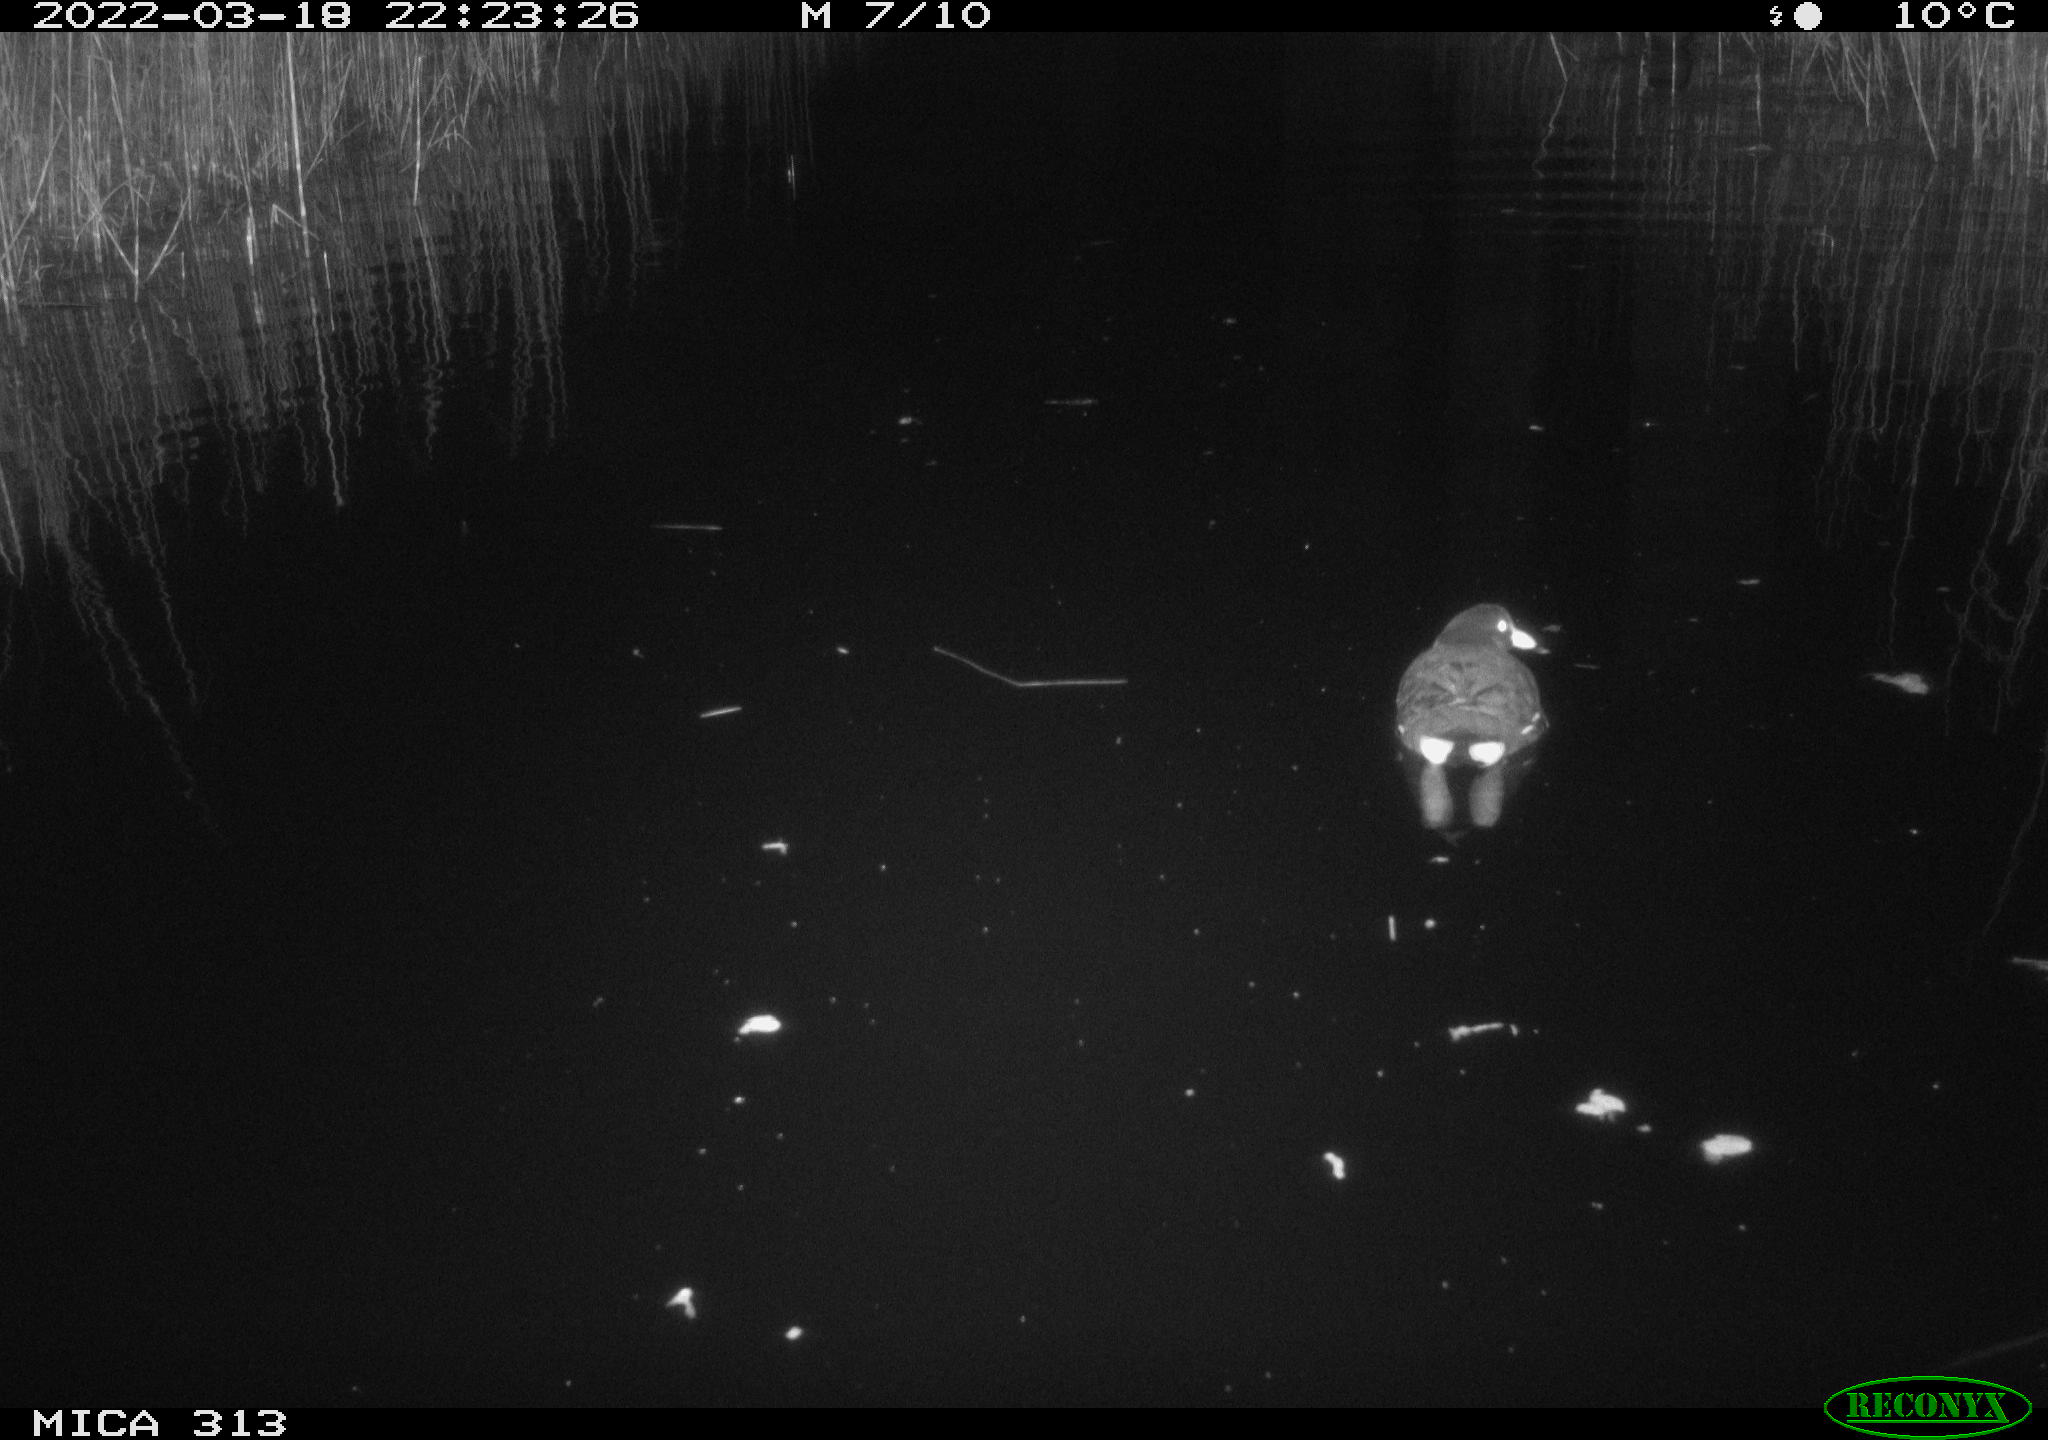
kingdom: Animalia
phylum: Chordata
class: Aves
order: Gruiformes
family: Rallidae
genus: Gallinula
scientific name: Gallinula chloropus
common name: Common moorhen
